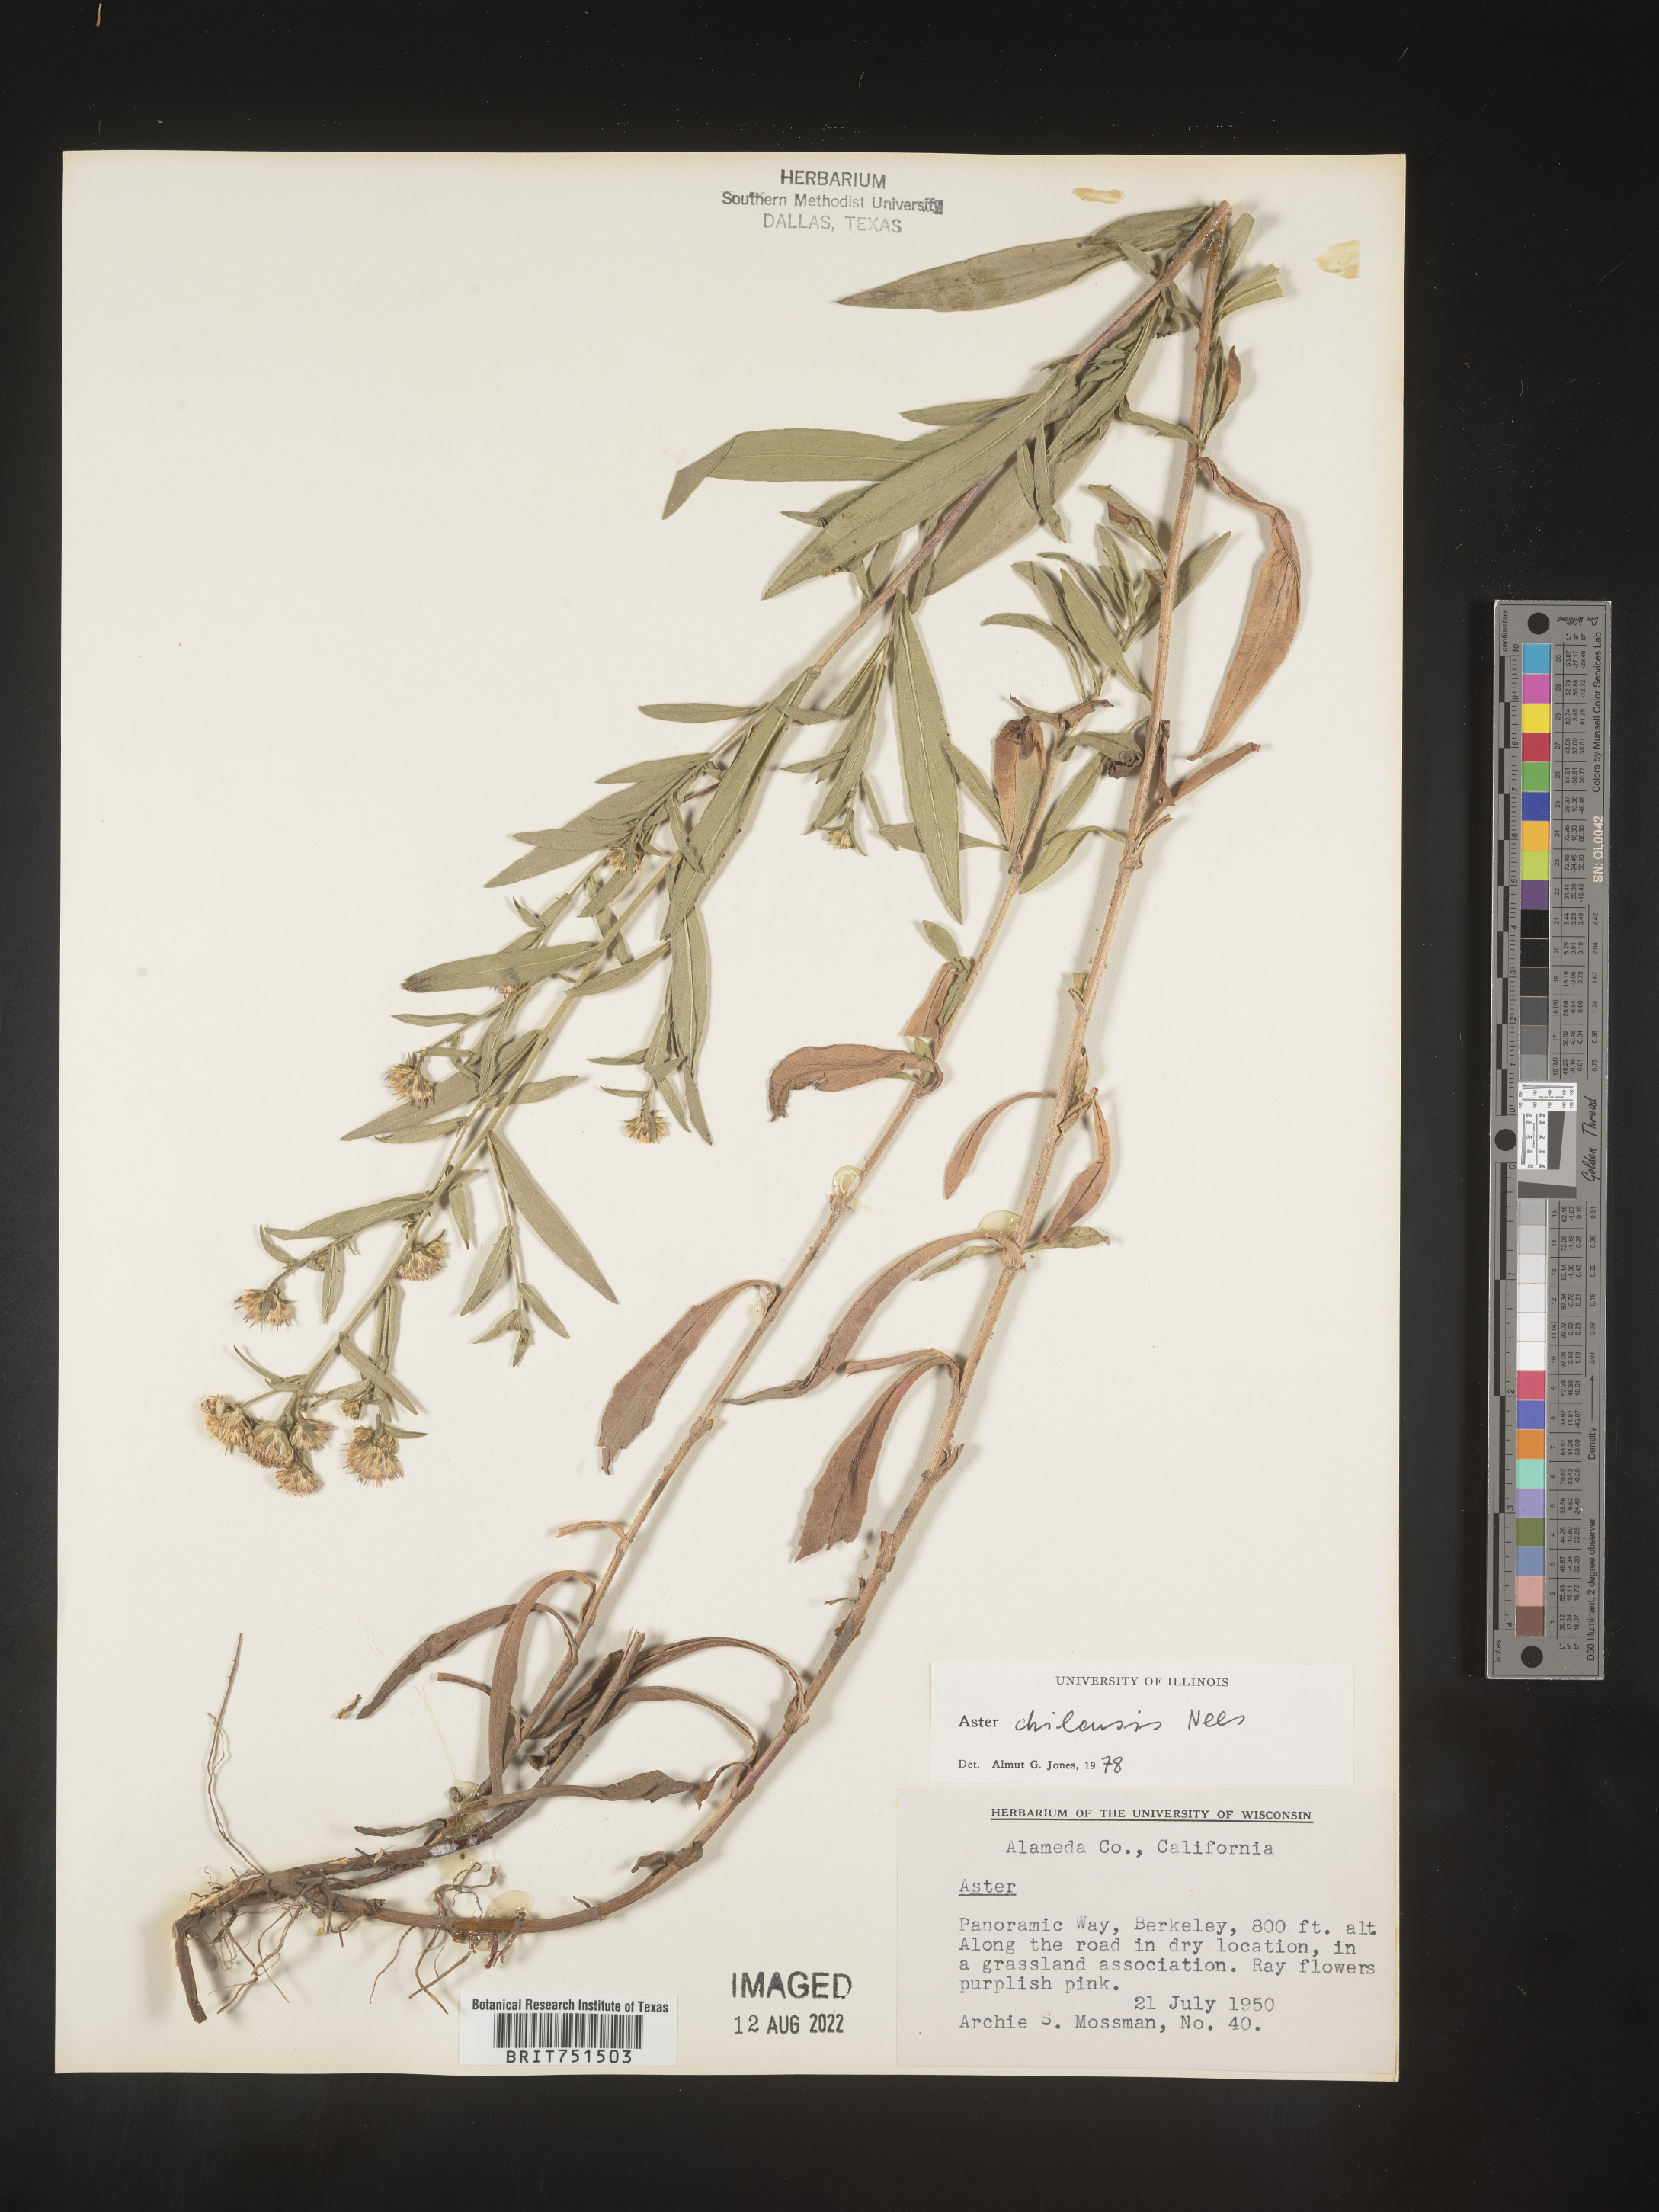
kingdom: Plantae
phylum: Tracheophyta
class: Magnoliopsida
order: Asterales
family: Asteraceae
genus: Symphyotrichum
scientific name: Symphyotrichum chilense
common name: Pacific aster
